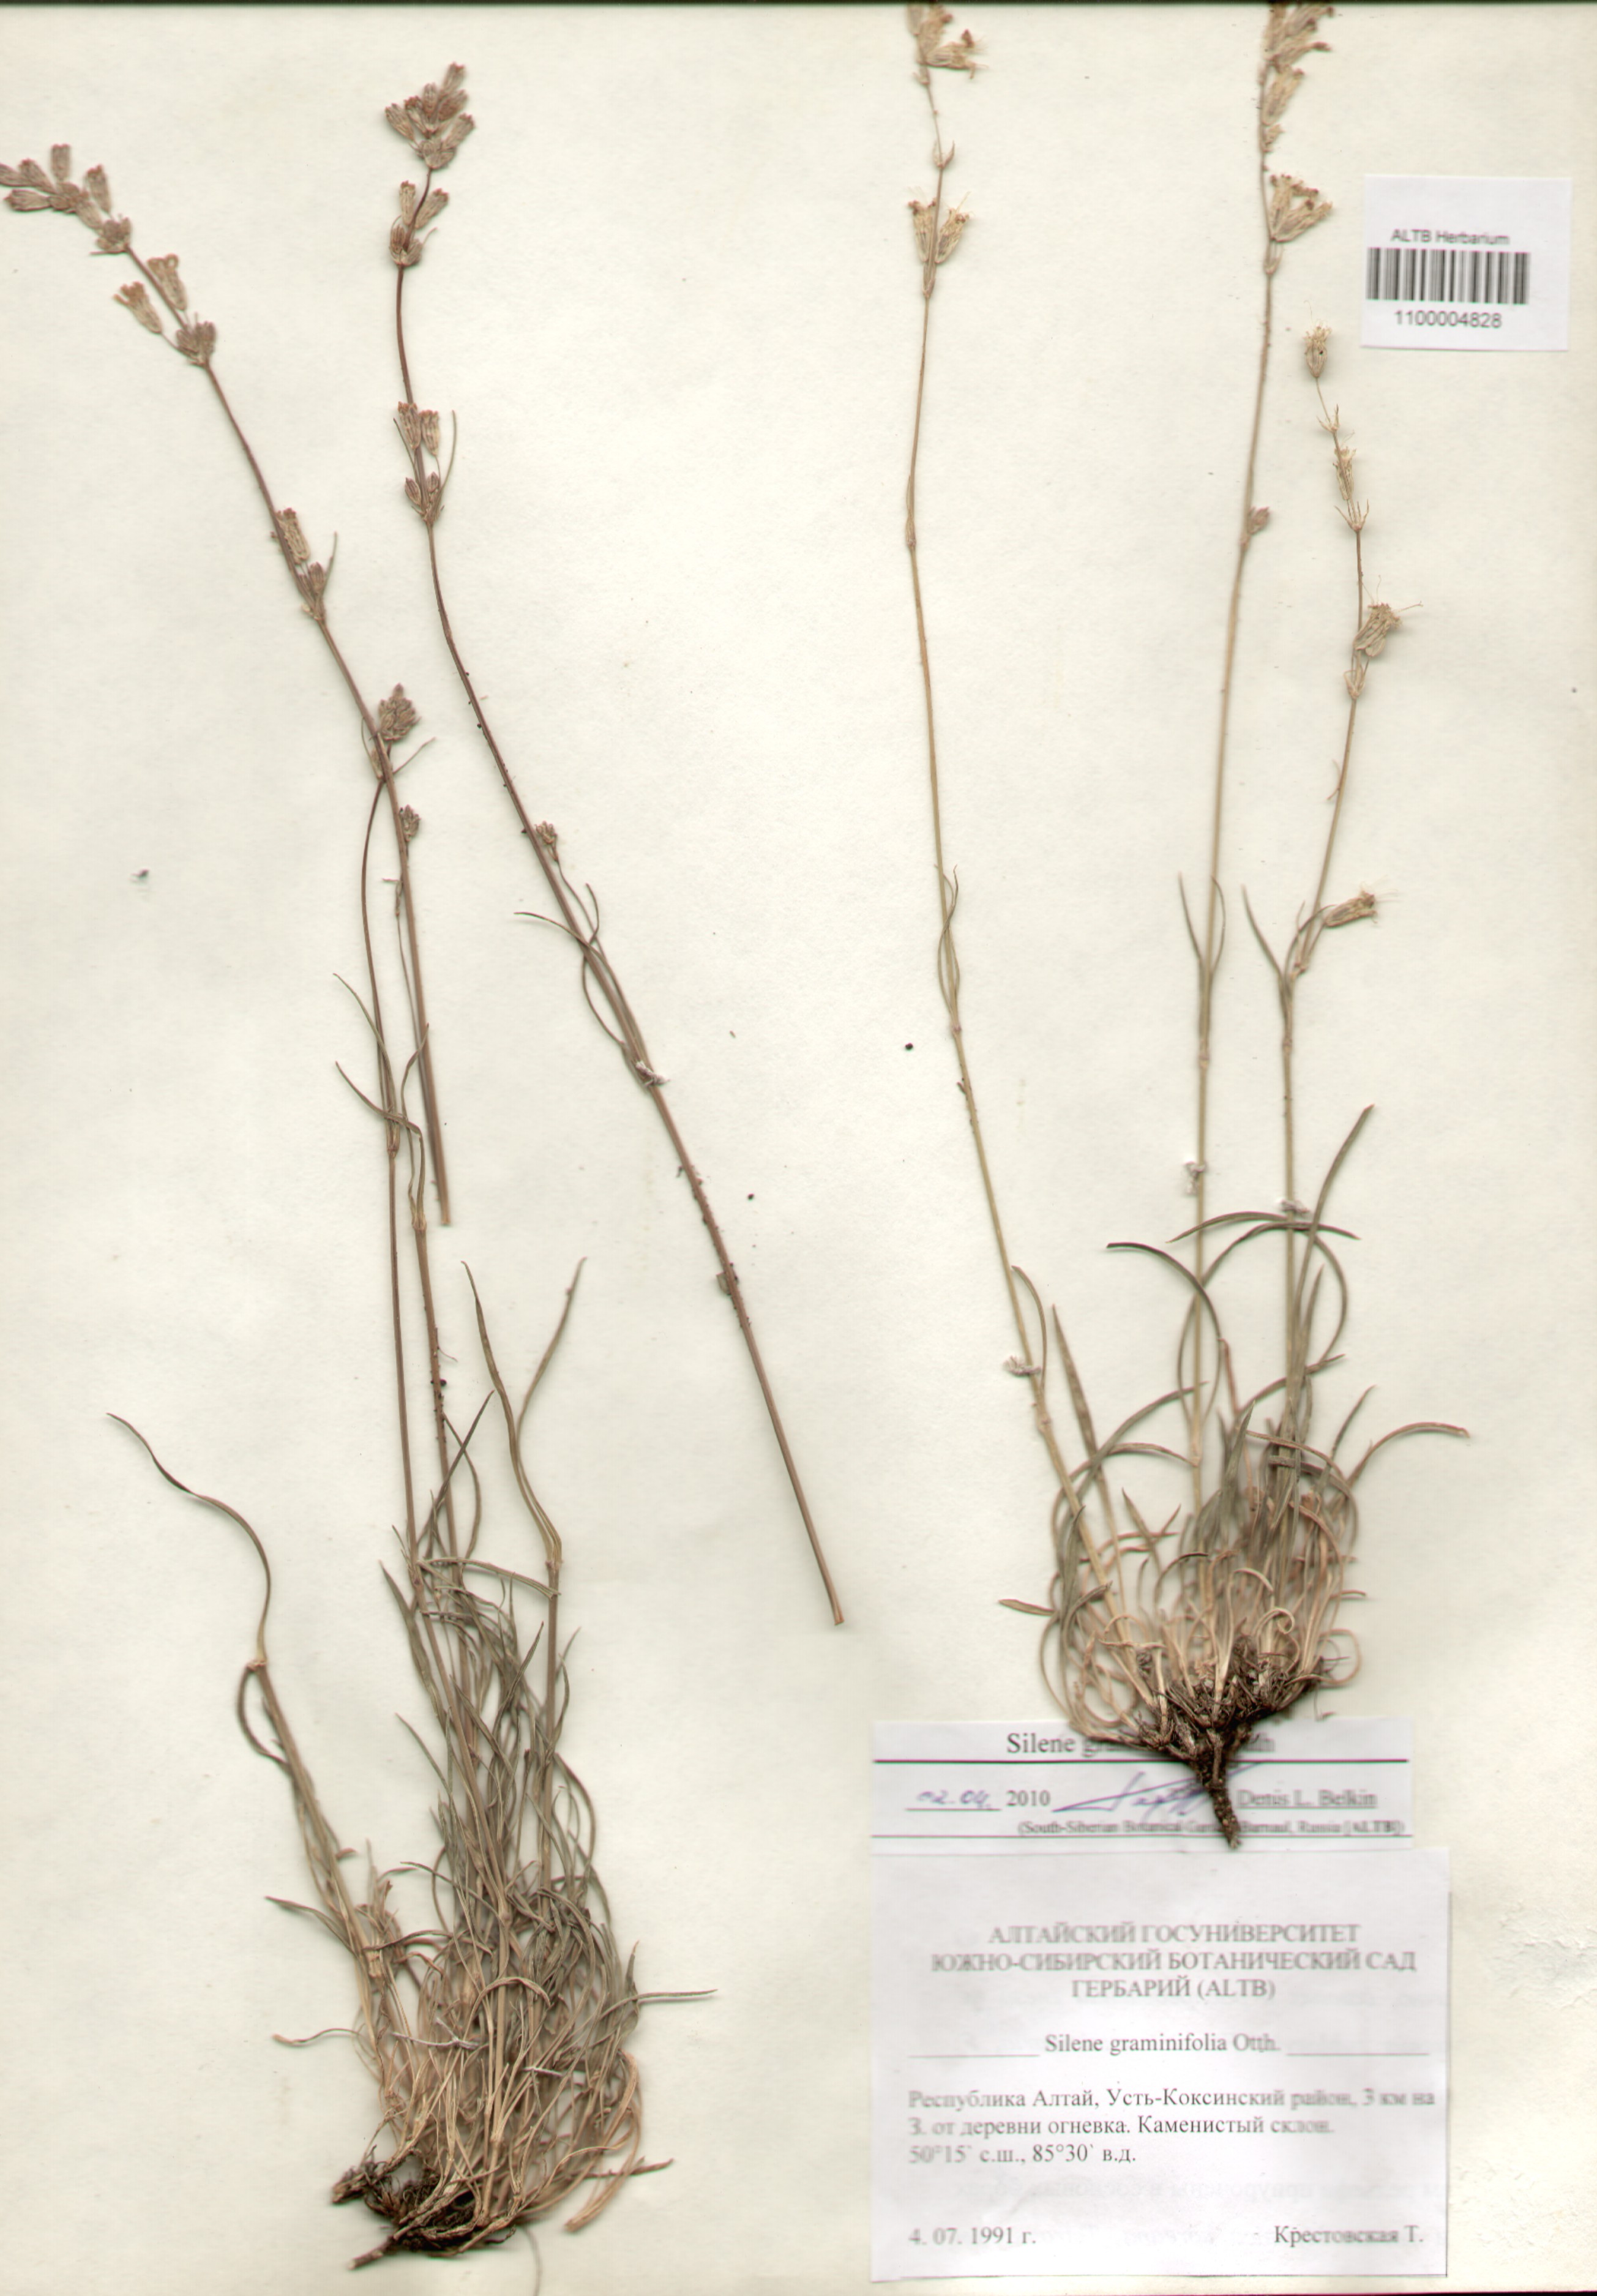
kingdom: Plantae
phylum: Tracheophyta
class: Magnoliopsida
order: Caryophyllales
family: Caryophyllaceae
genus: Silene
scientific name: Silene graminifolia
